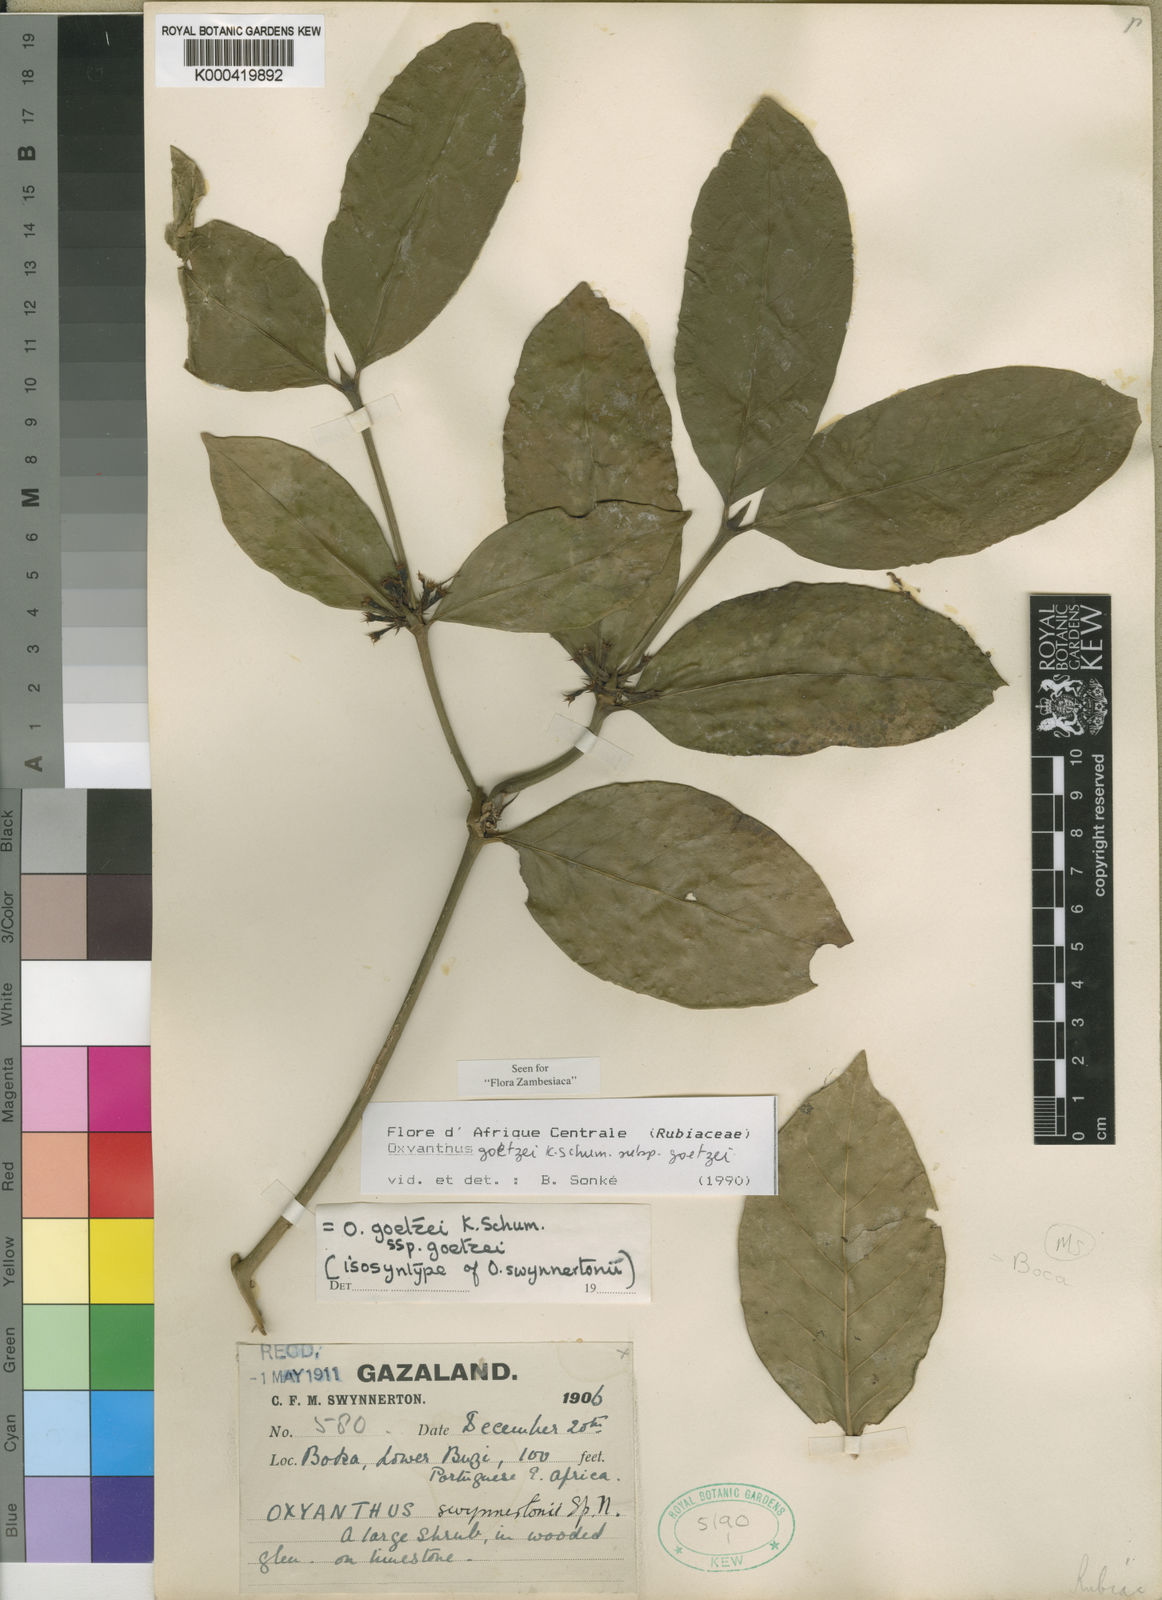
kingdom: Plantae
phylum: Tracheophyta
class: Magnoliopsida
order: Gentianales
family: Rubiaceae
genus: Oxyanthus
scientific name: Oxyanthus goetzei
